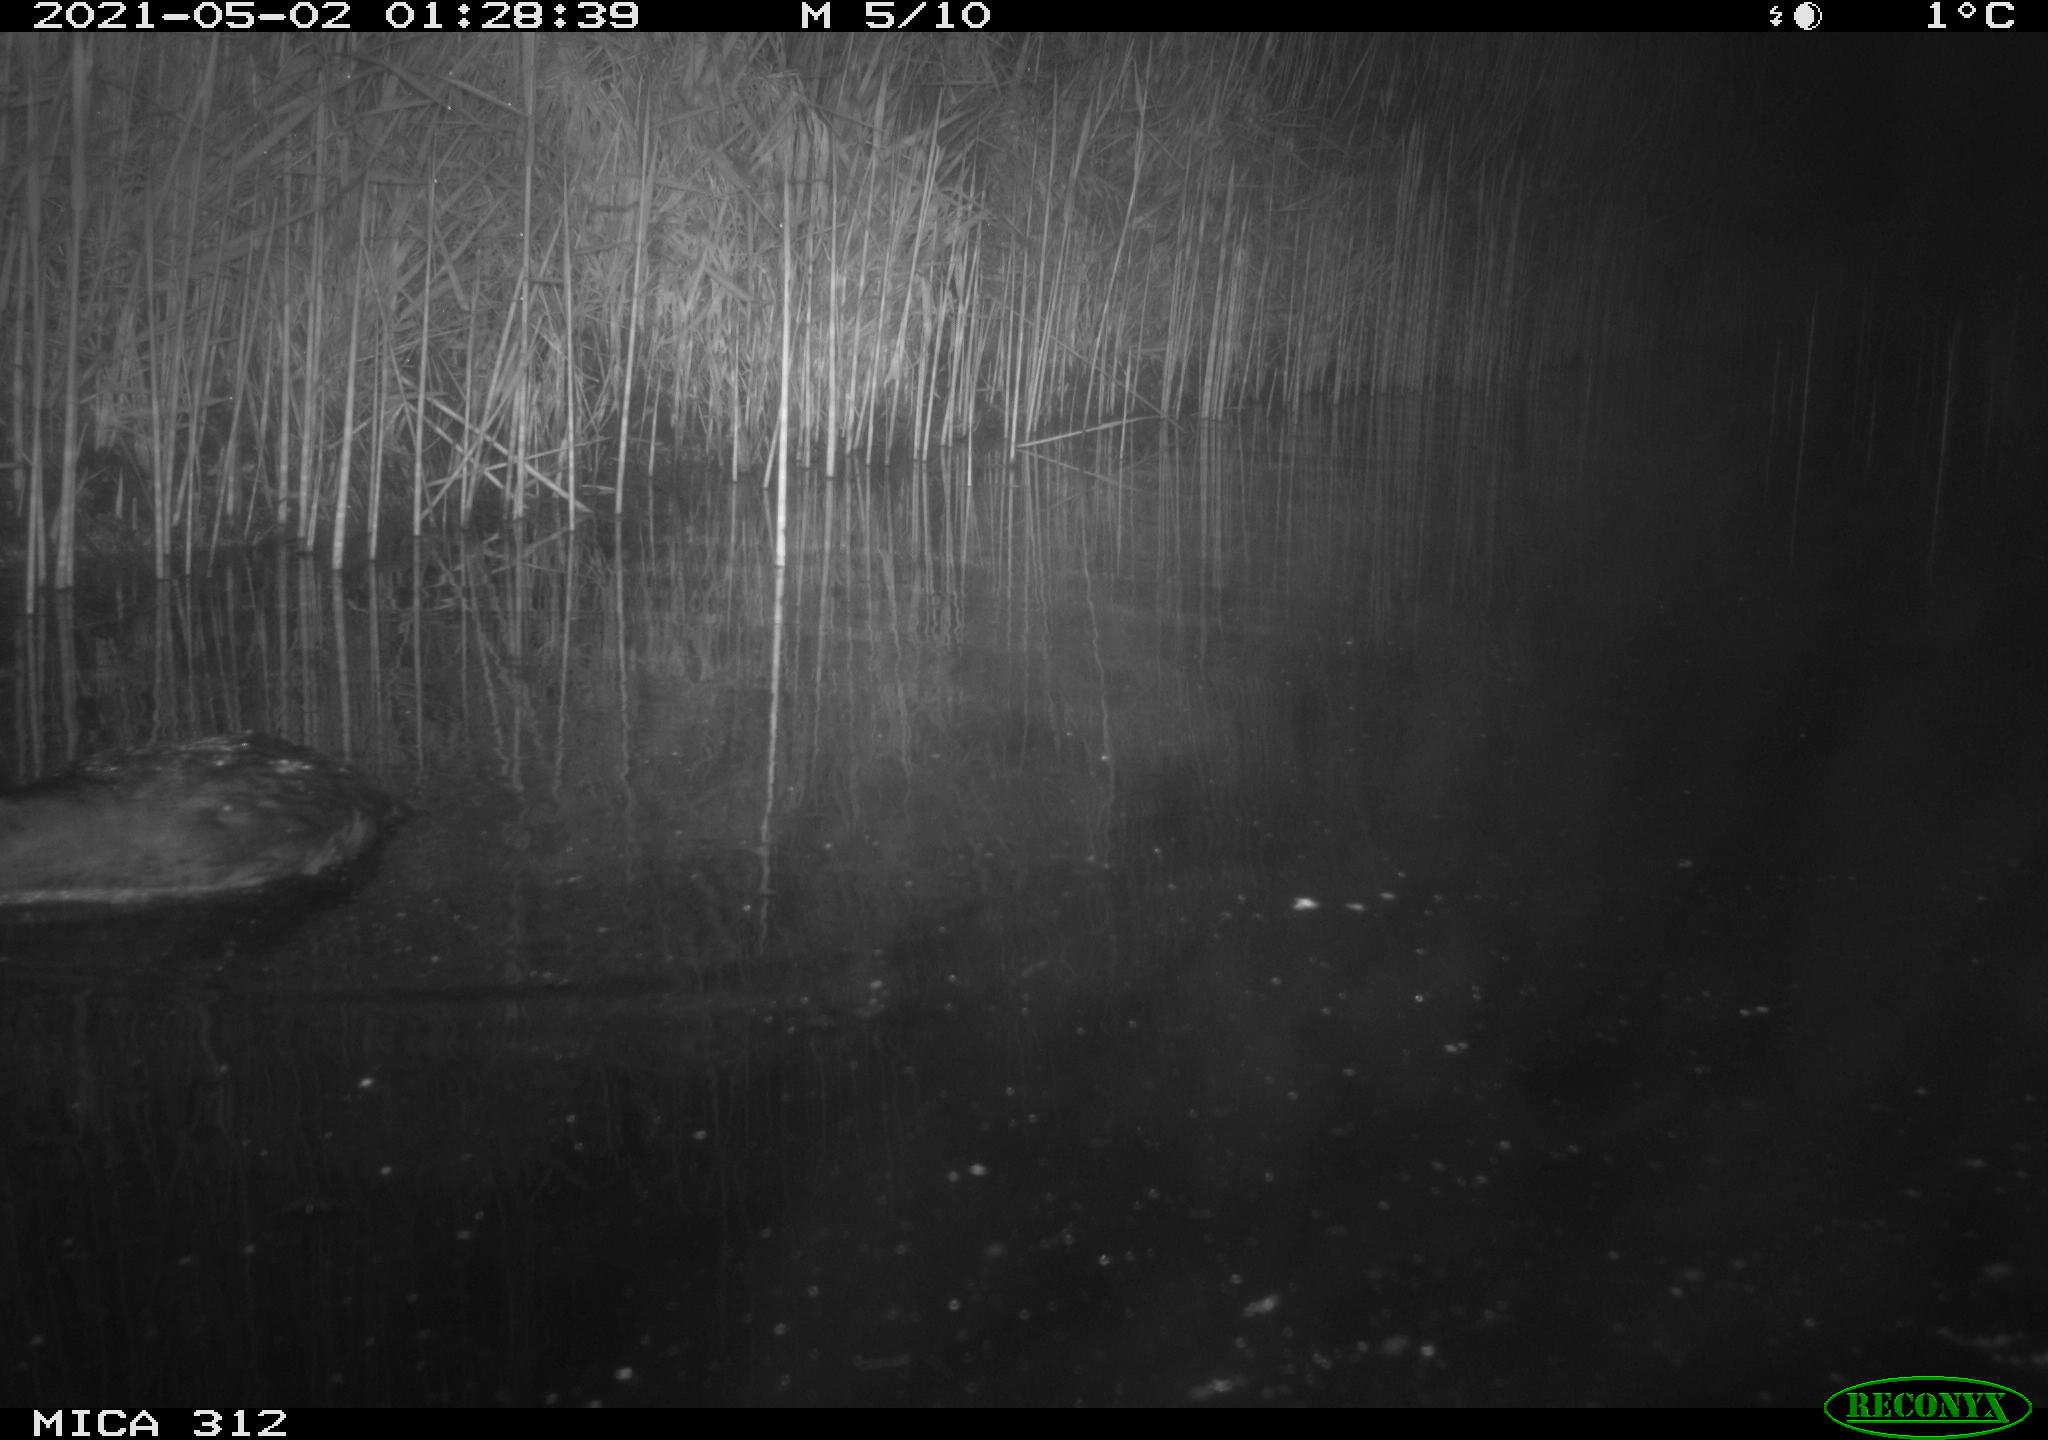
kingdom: Animalia
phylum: Chordata
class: Aves
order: Gruiformes
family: Rallidae
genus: Fulica
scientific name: Fulica atra
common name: Eurasian coot
